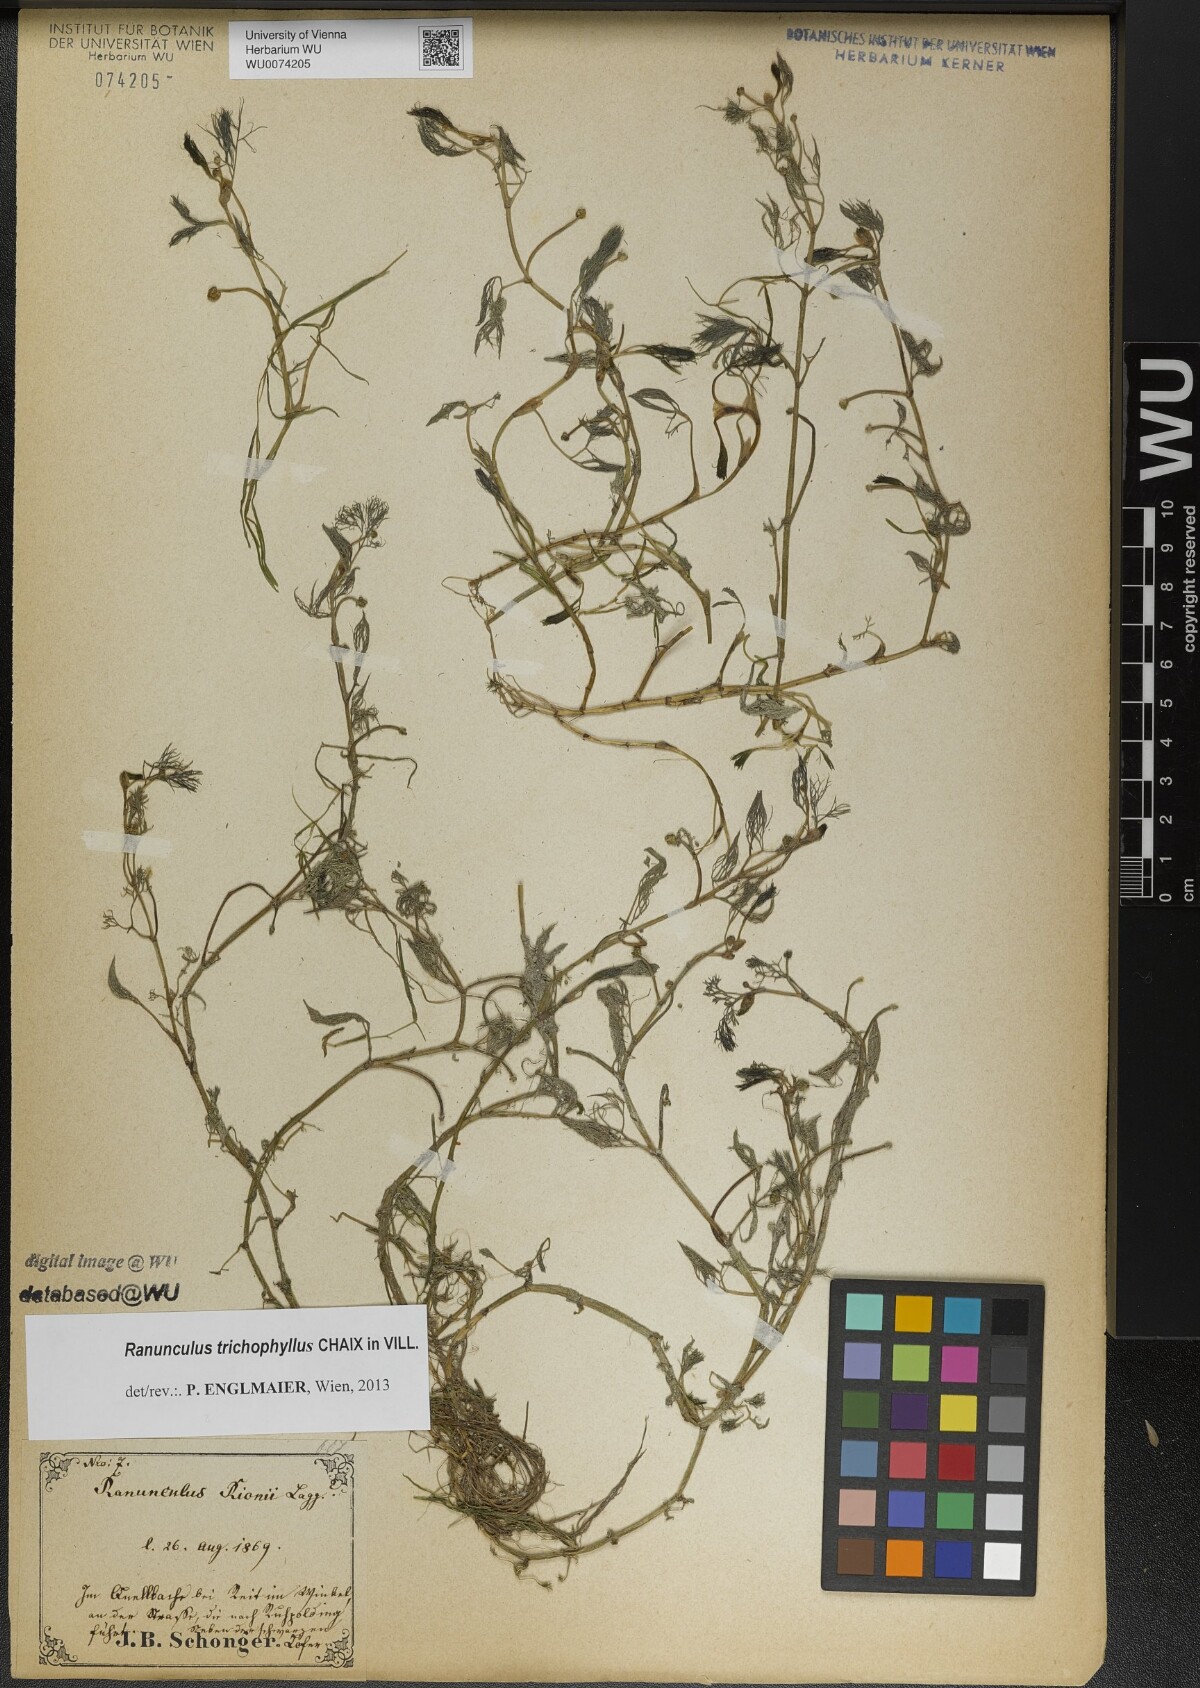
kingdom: Plantae
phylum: Tracheophyta
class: Magnoliopsida
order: Ranunculales
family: Ranunculaceae
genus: Ranunculus
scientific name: Ranunculus trichophyllus
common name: Thread-leaved water-crowfoot
